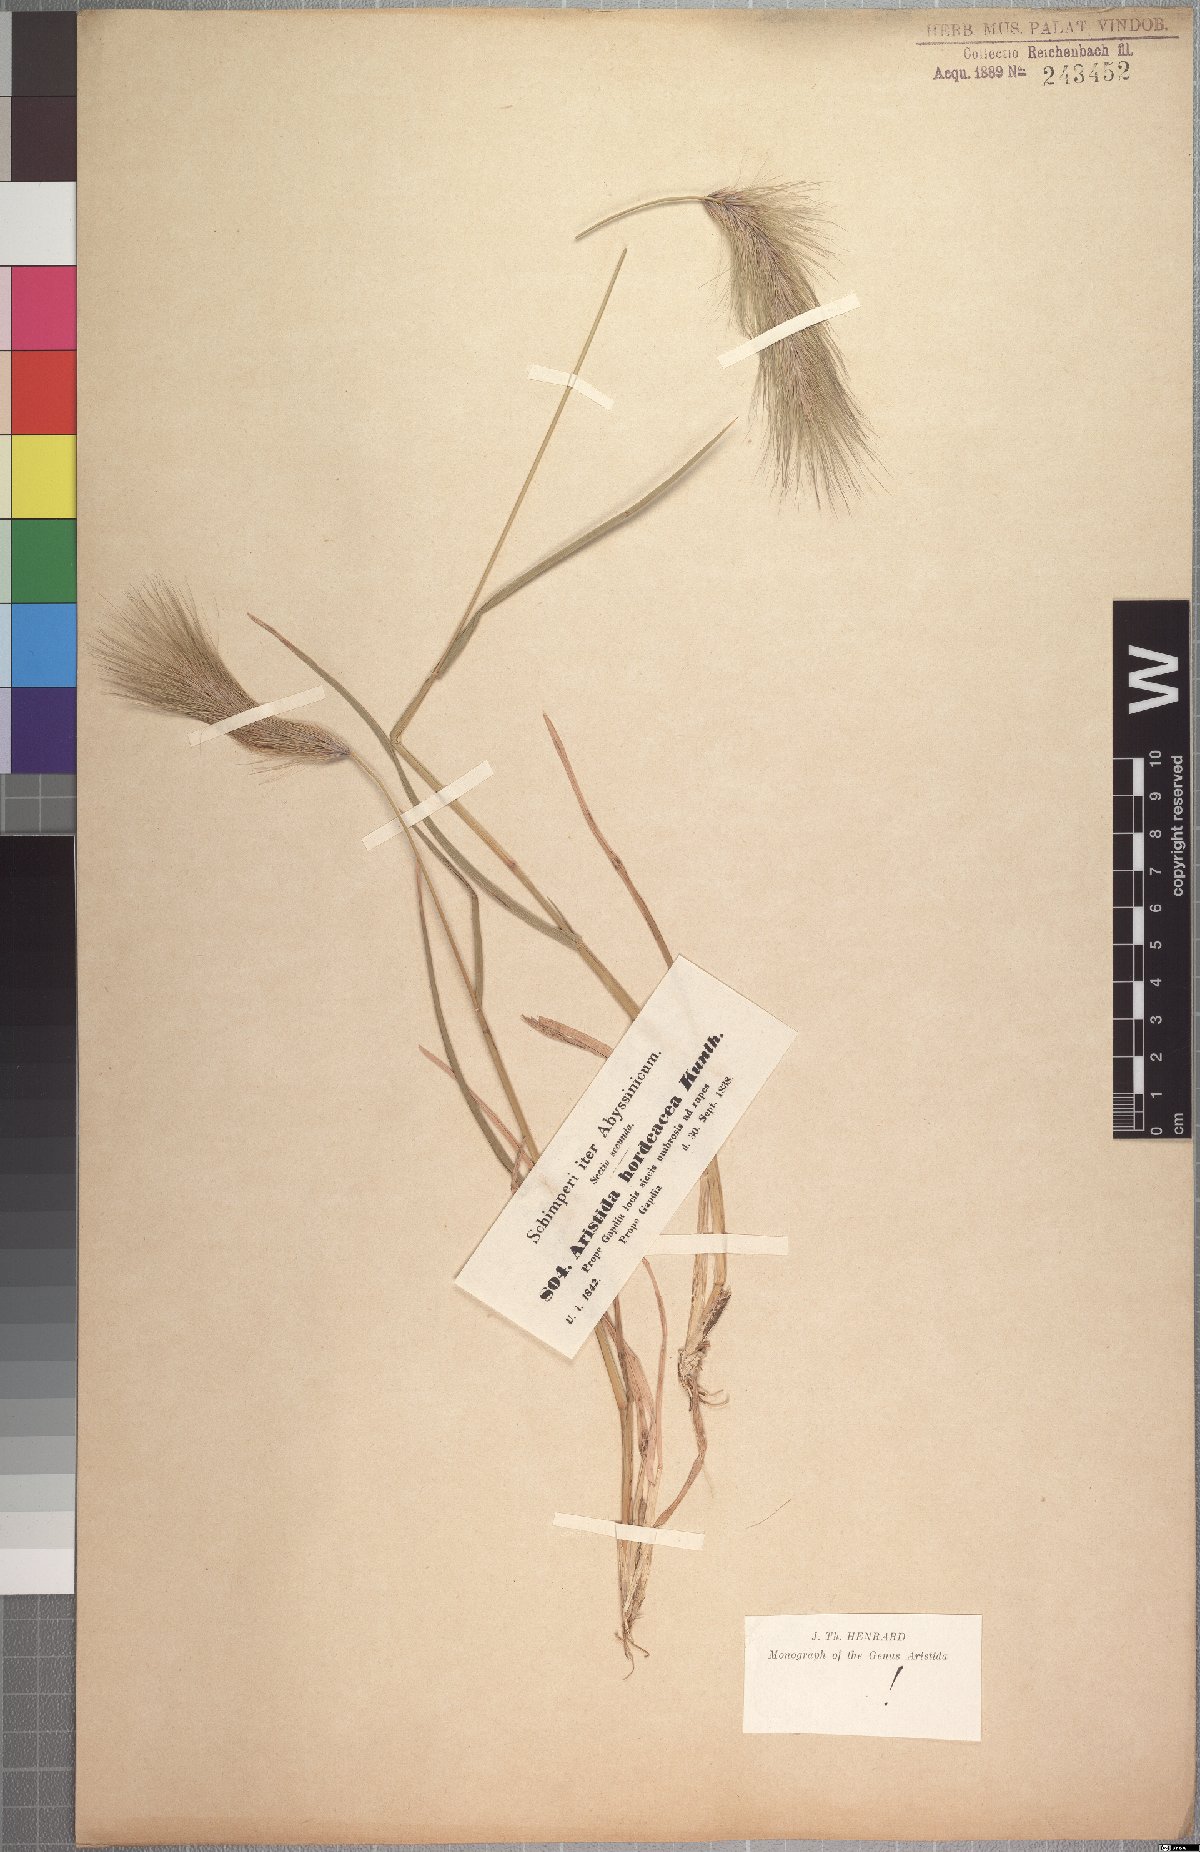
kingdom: Plantae
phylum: Tracheophyta
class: Liliopsida
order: Poales
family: Poaceae
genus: Aristida
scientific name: Aristida hordeacea
